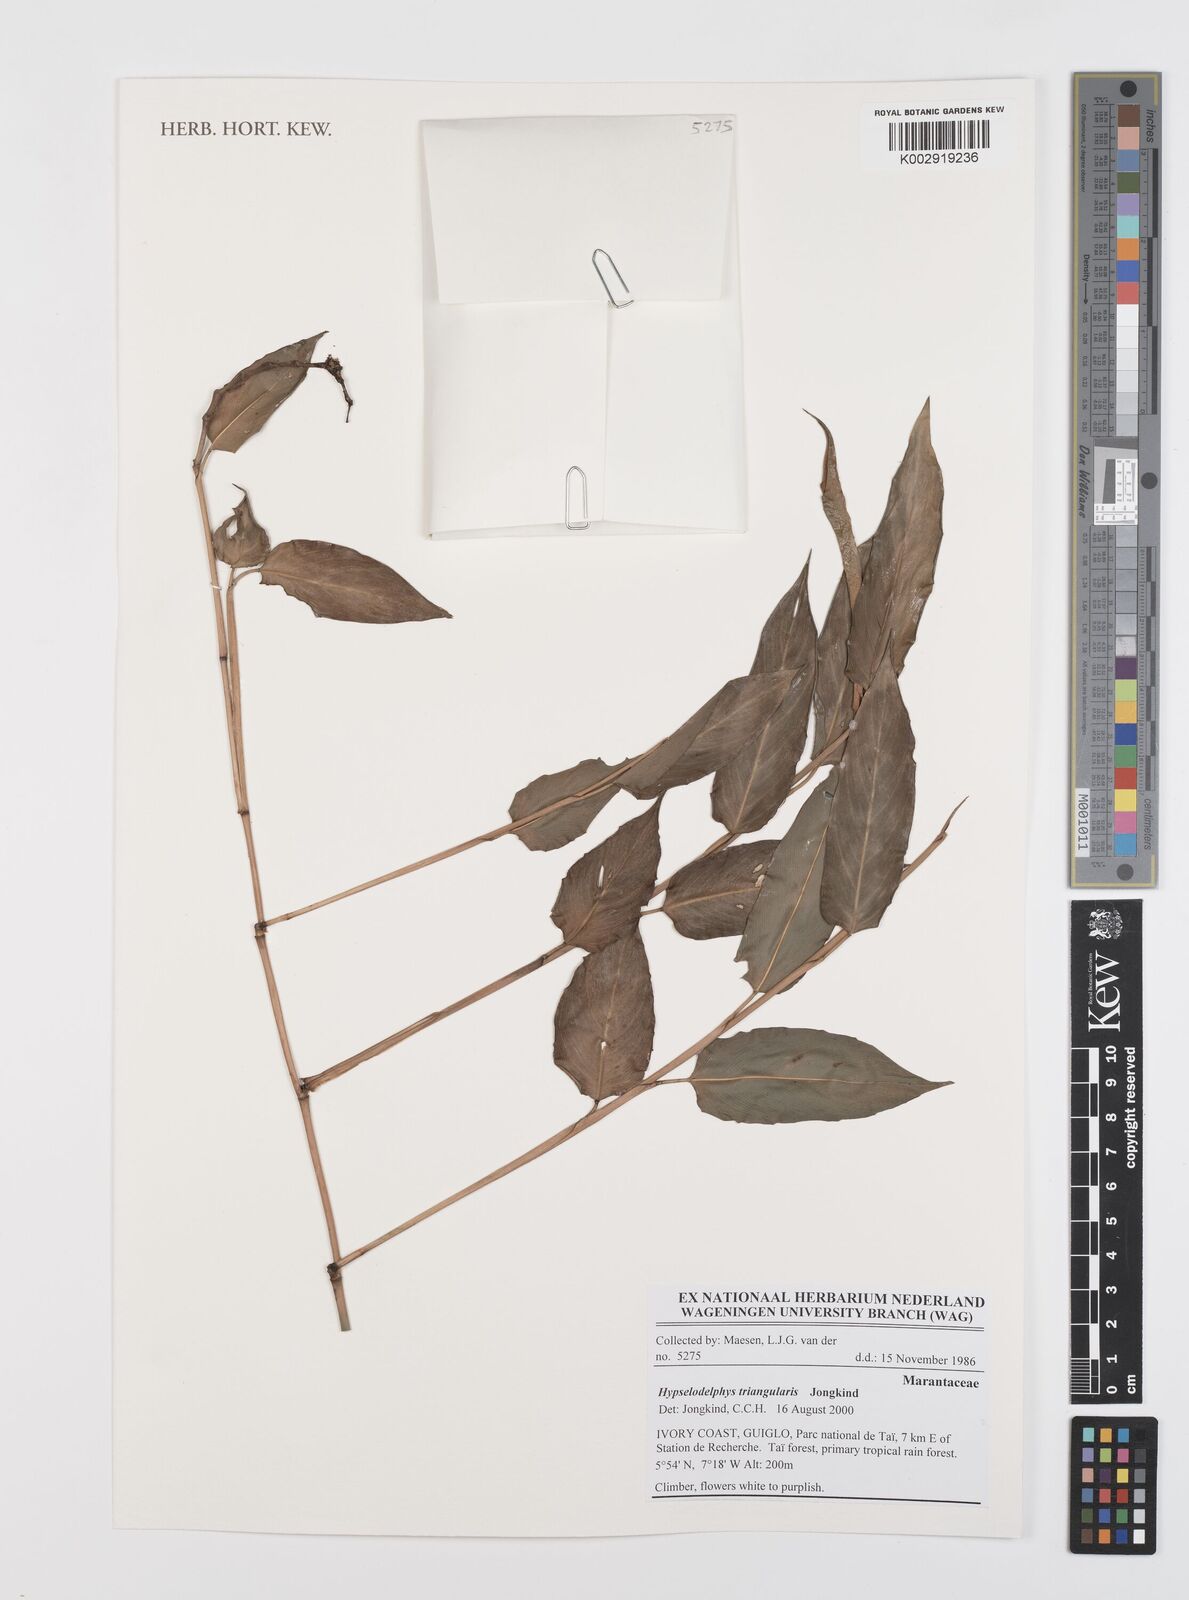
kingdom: Plantae
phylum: Tracheophyta
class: Liliopsida
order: Zingiberales
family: Marantaceae
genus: Hypselodelphys
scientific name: Hypselodelphys triangularis
